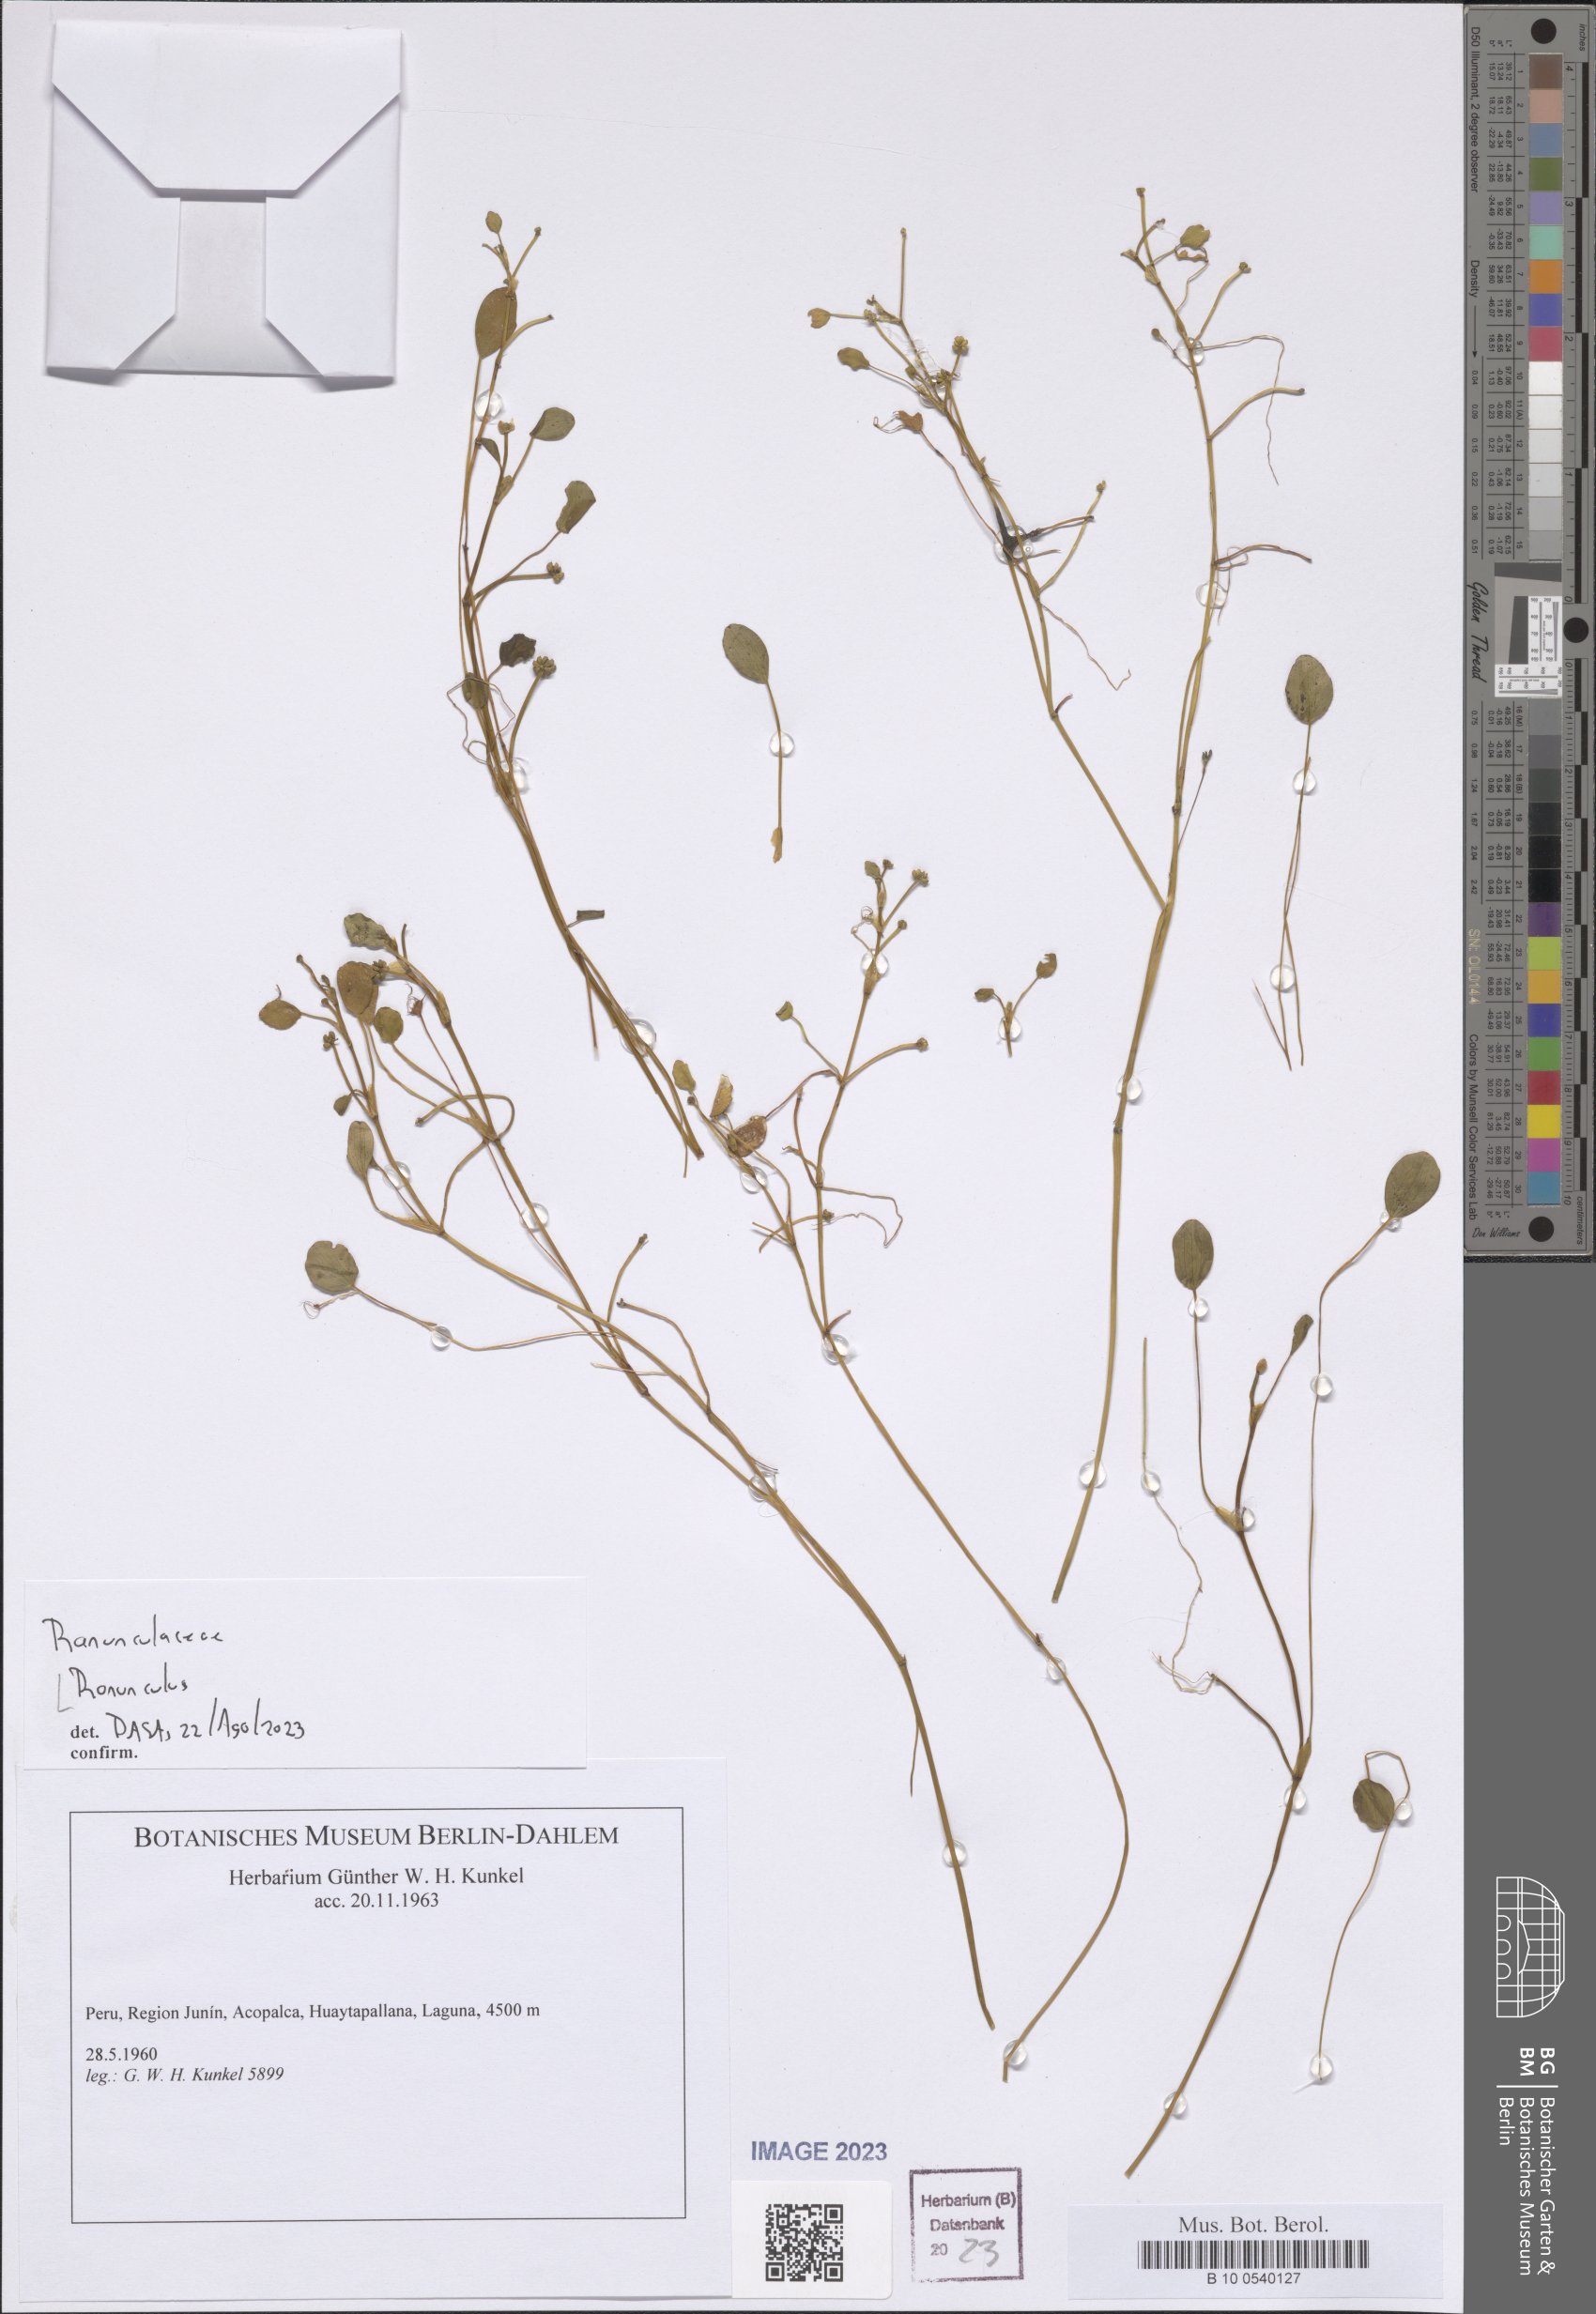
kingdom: Plantae
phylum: Tracheophyta
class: Magnoliopsida
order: Ranunculales
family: Ranunculaceae
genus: Ranunculus
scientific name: Ranunculus
